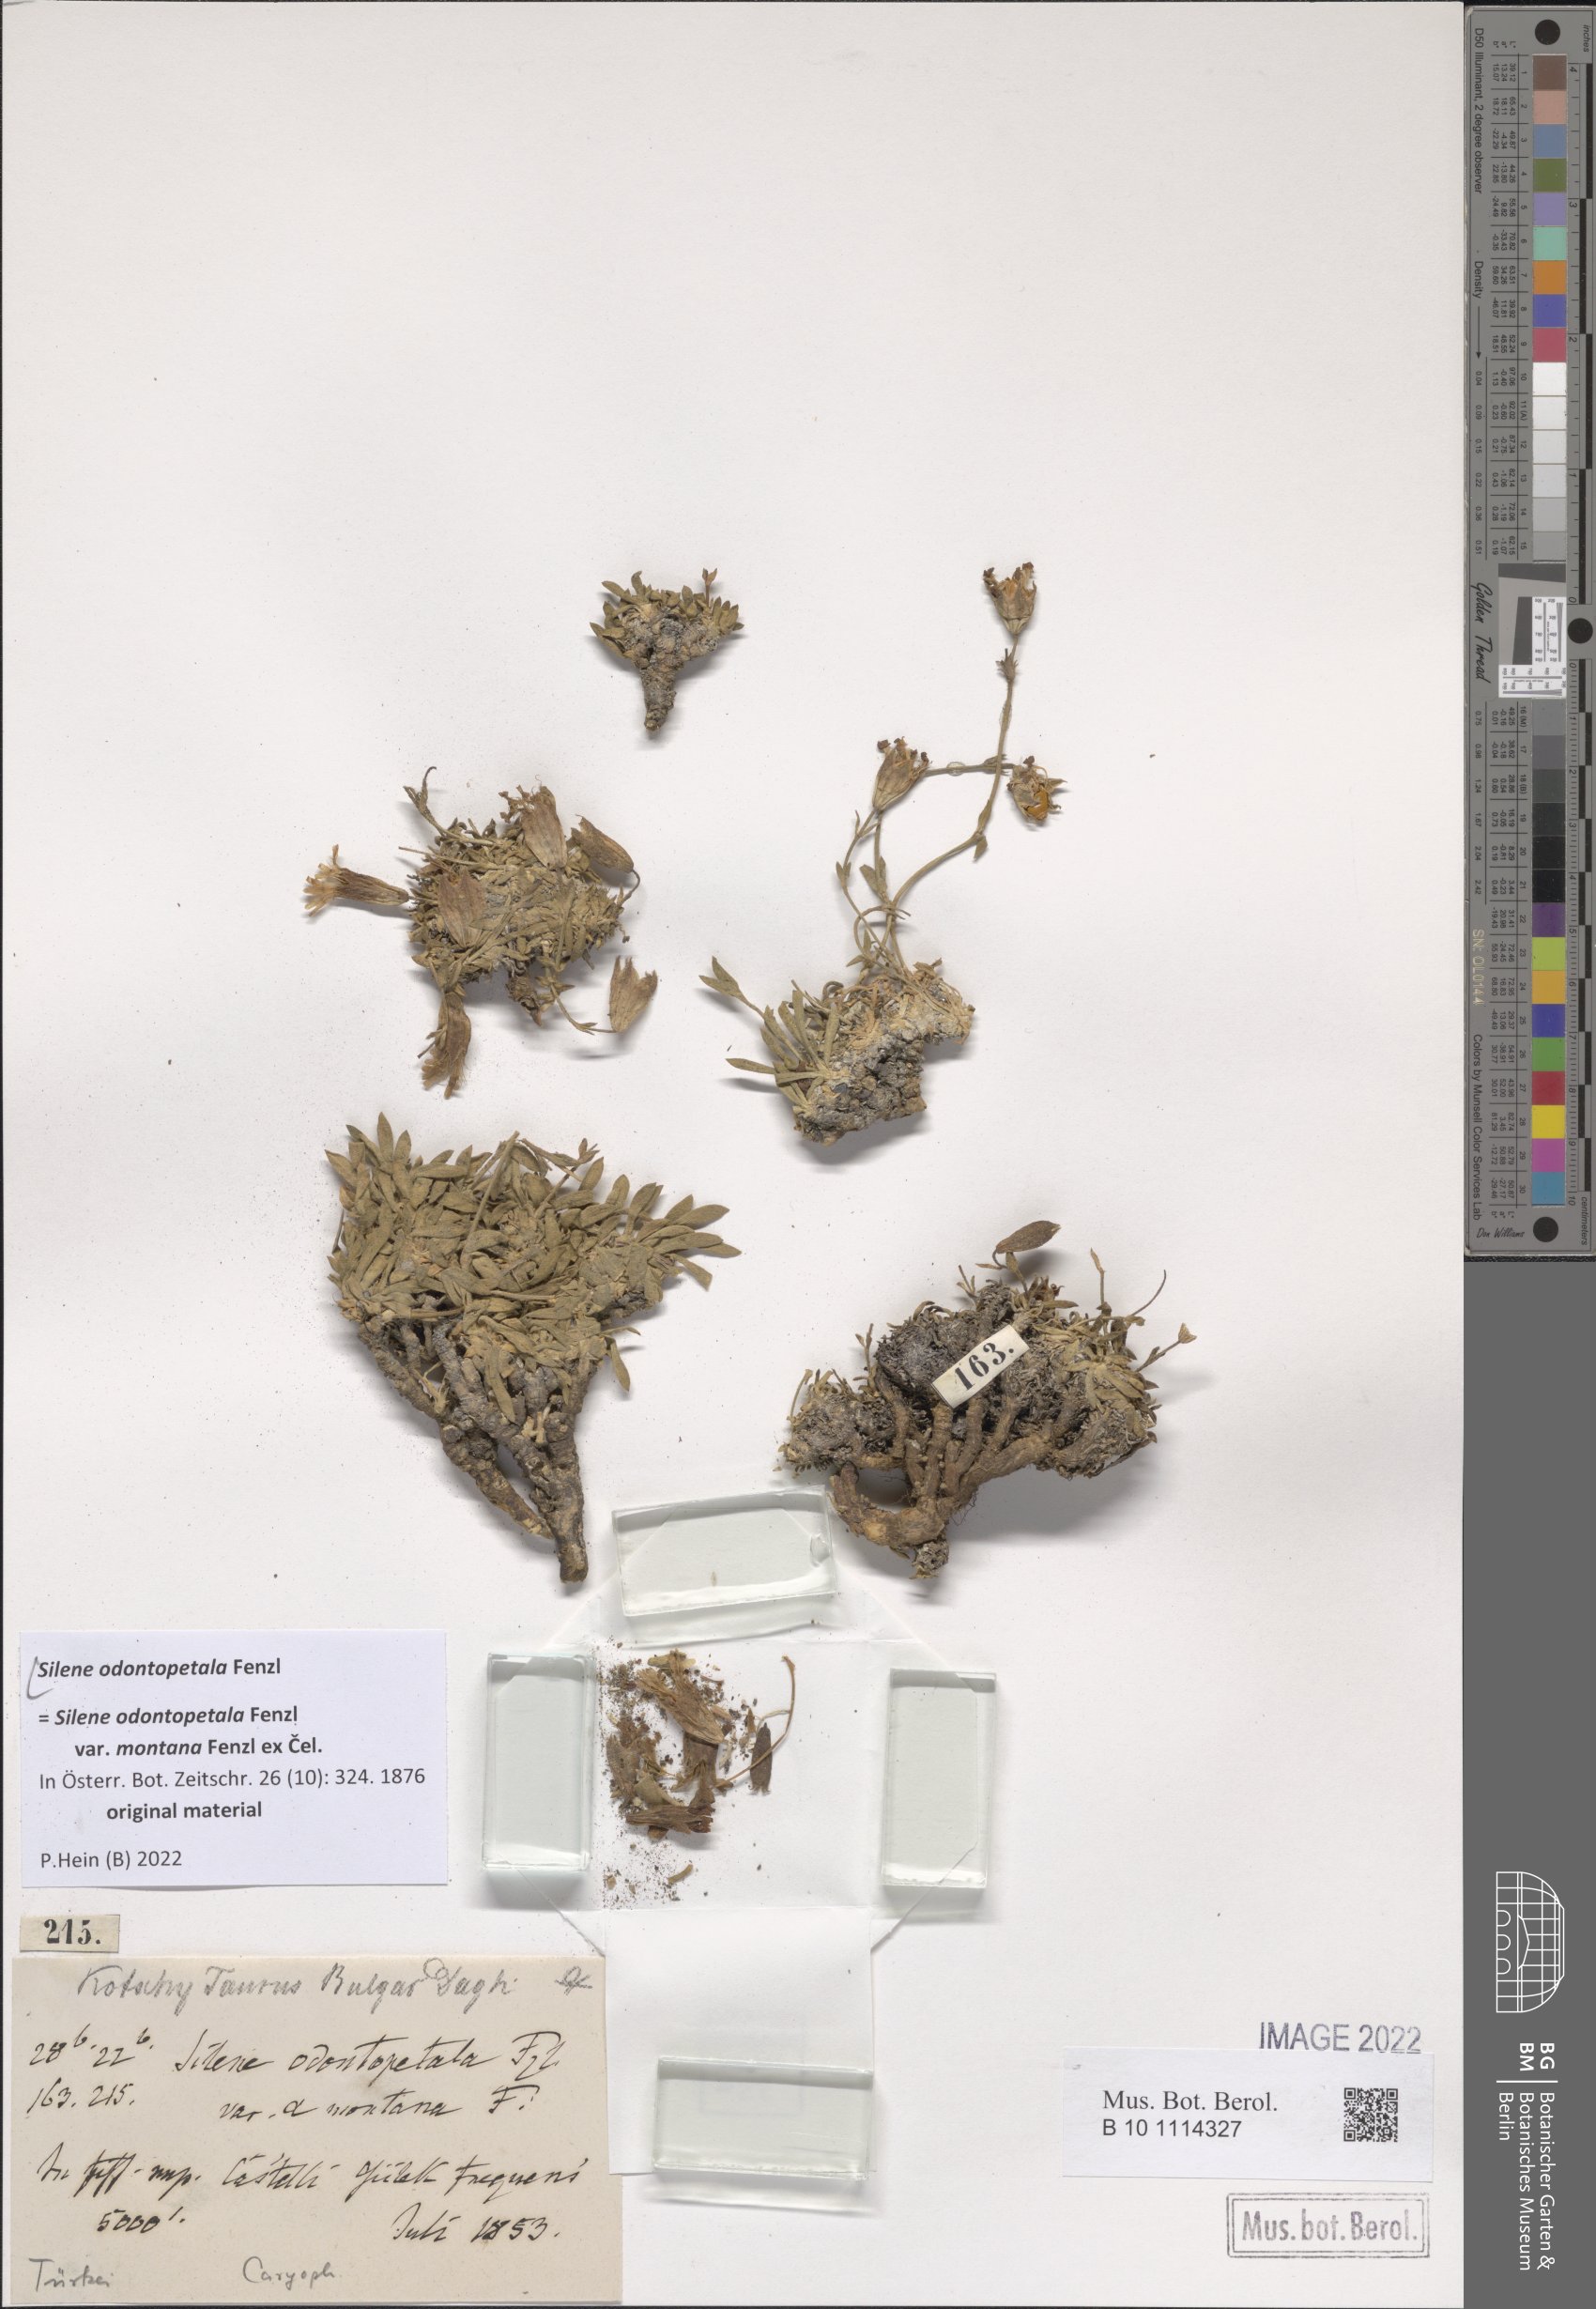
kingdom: Plantae
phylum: Tracheophyta
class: Magnoliopsida
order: Caryophyllales
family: Caryophyllaceae
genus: Silene
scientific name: Silene odontopetala
